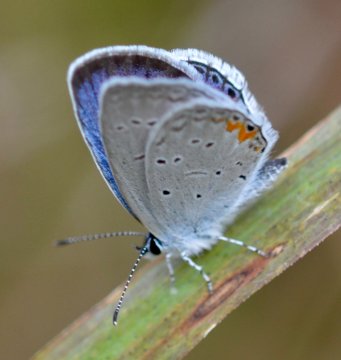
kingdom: Animalia
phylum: Arthropoda
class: Insecta
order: Lepidoptera
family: Lycaenidae
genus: Elkalyce
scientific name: Elkalyce comyntas
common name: Eastern Tailed-Blue
